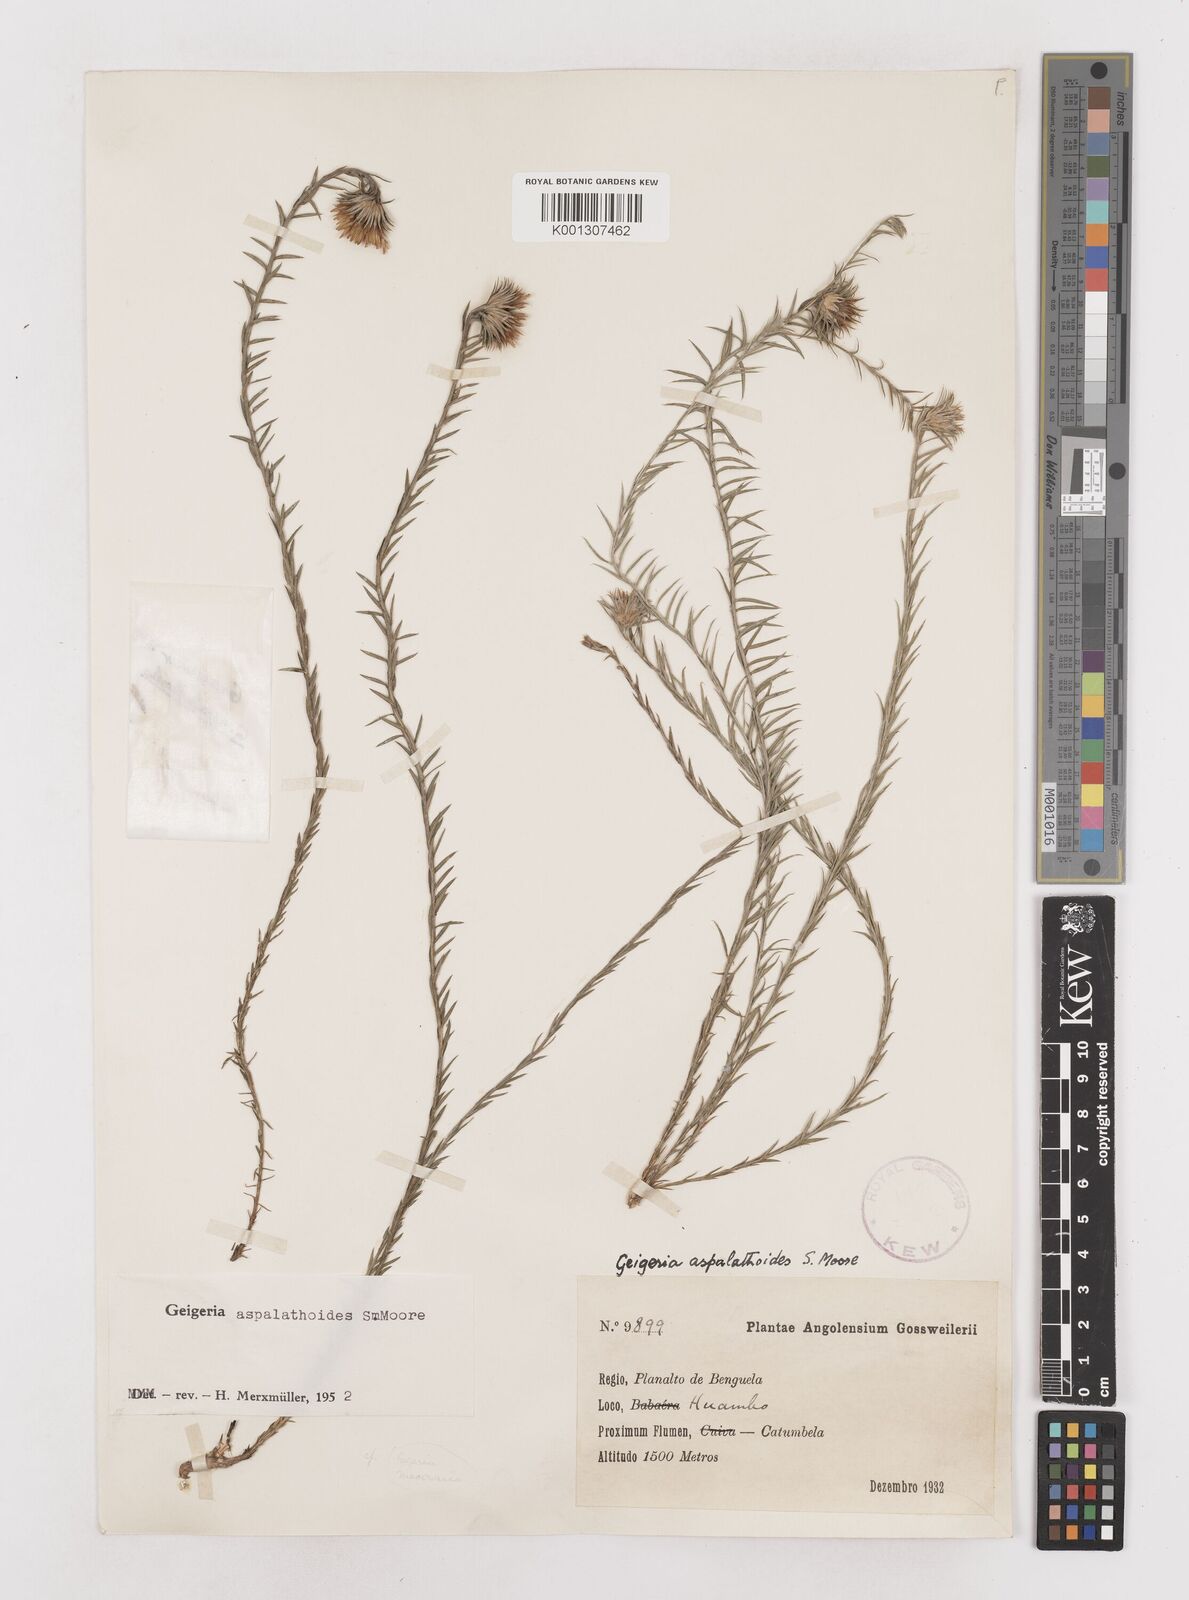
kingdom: Plantae
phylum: Tracheophyta
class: Magnoliopsida
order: Asterales
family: Asteraceae
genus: Geigeria
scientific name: Geigeria aspalathoides
